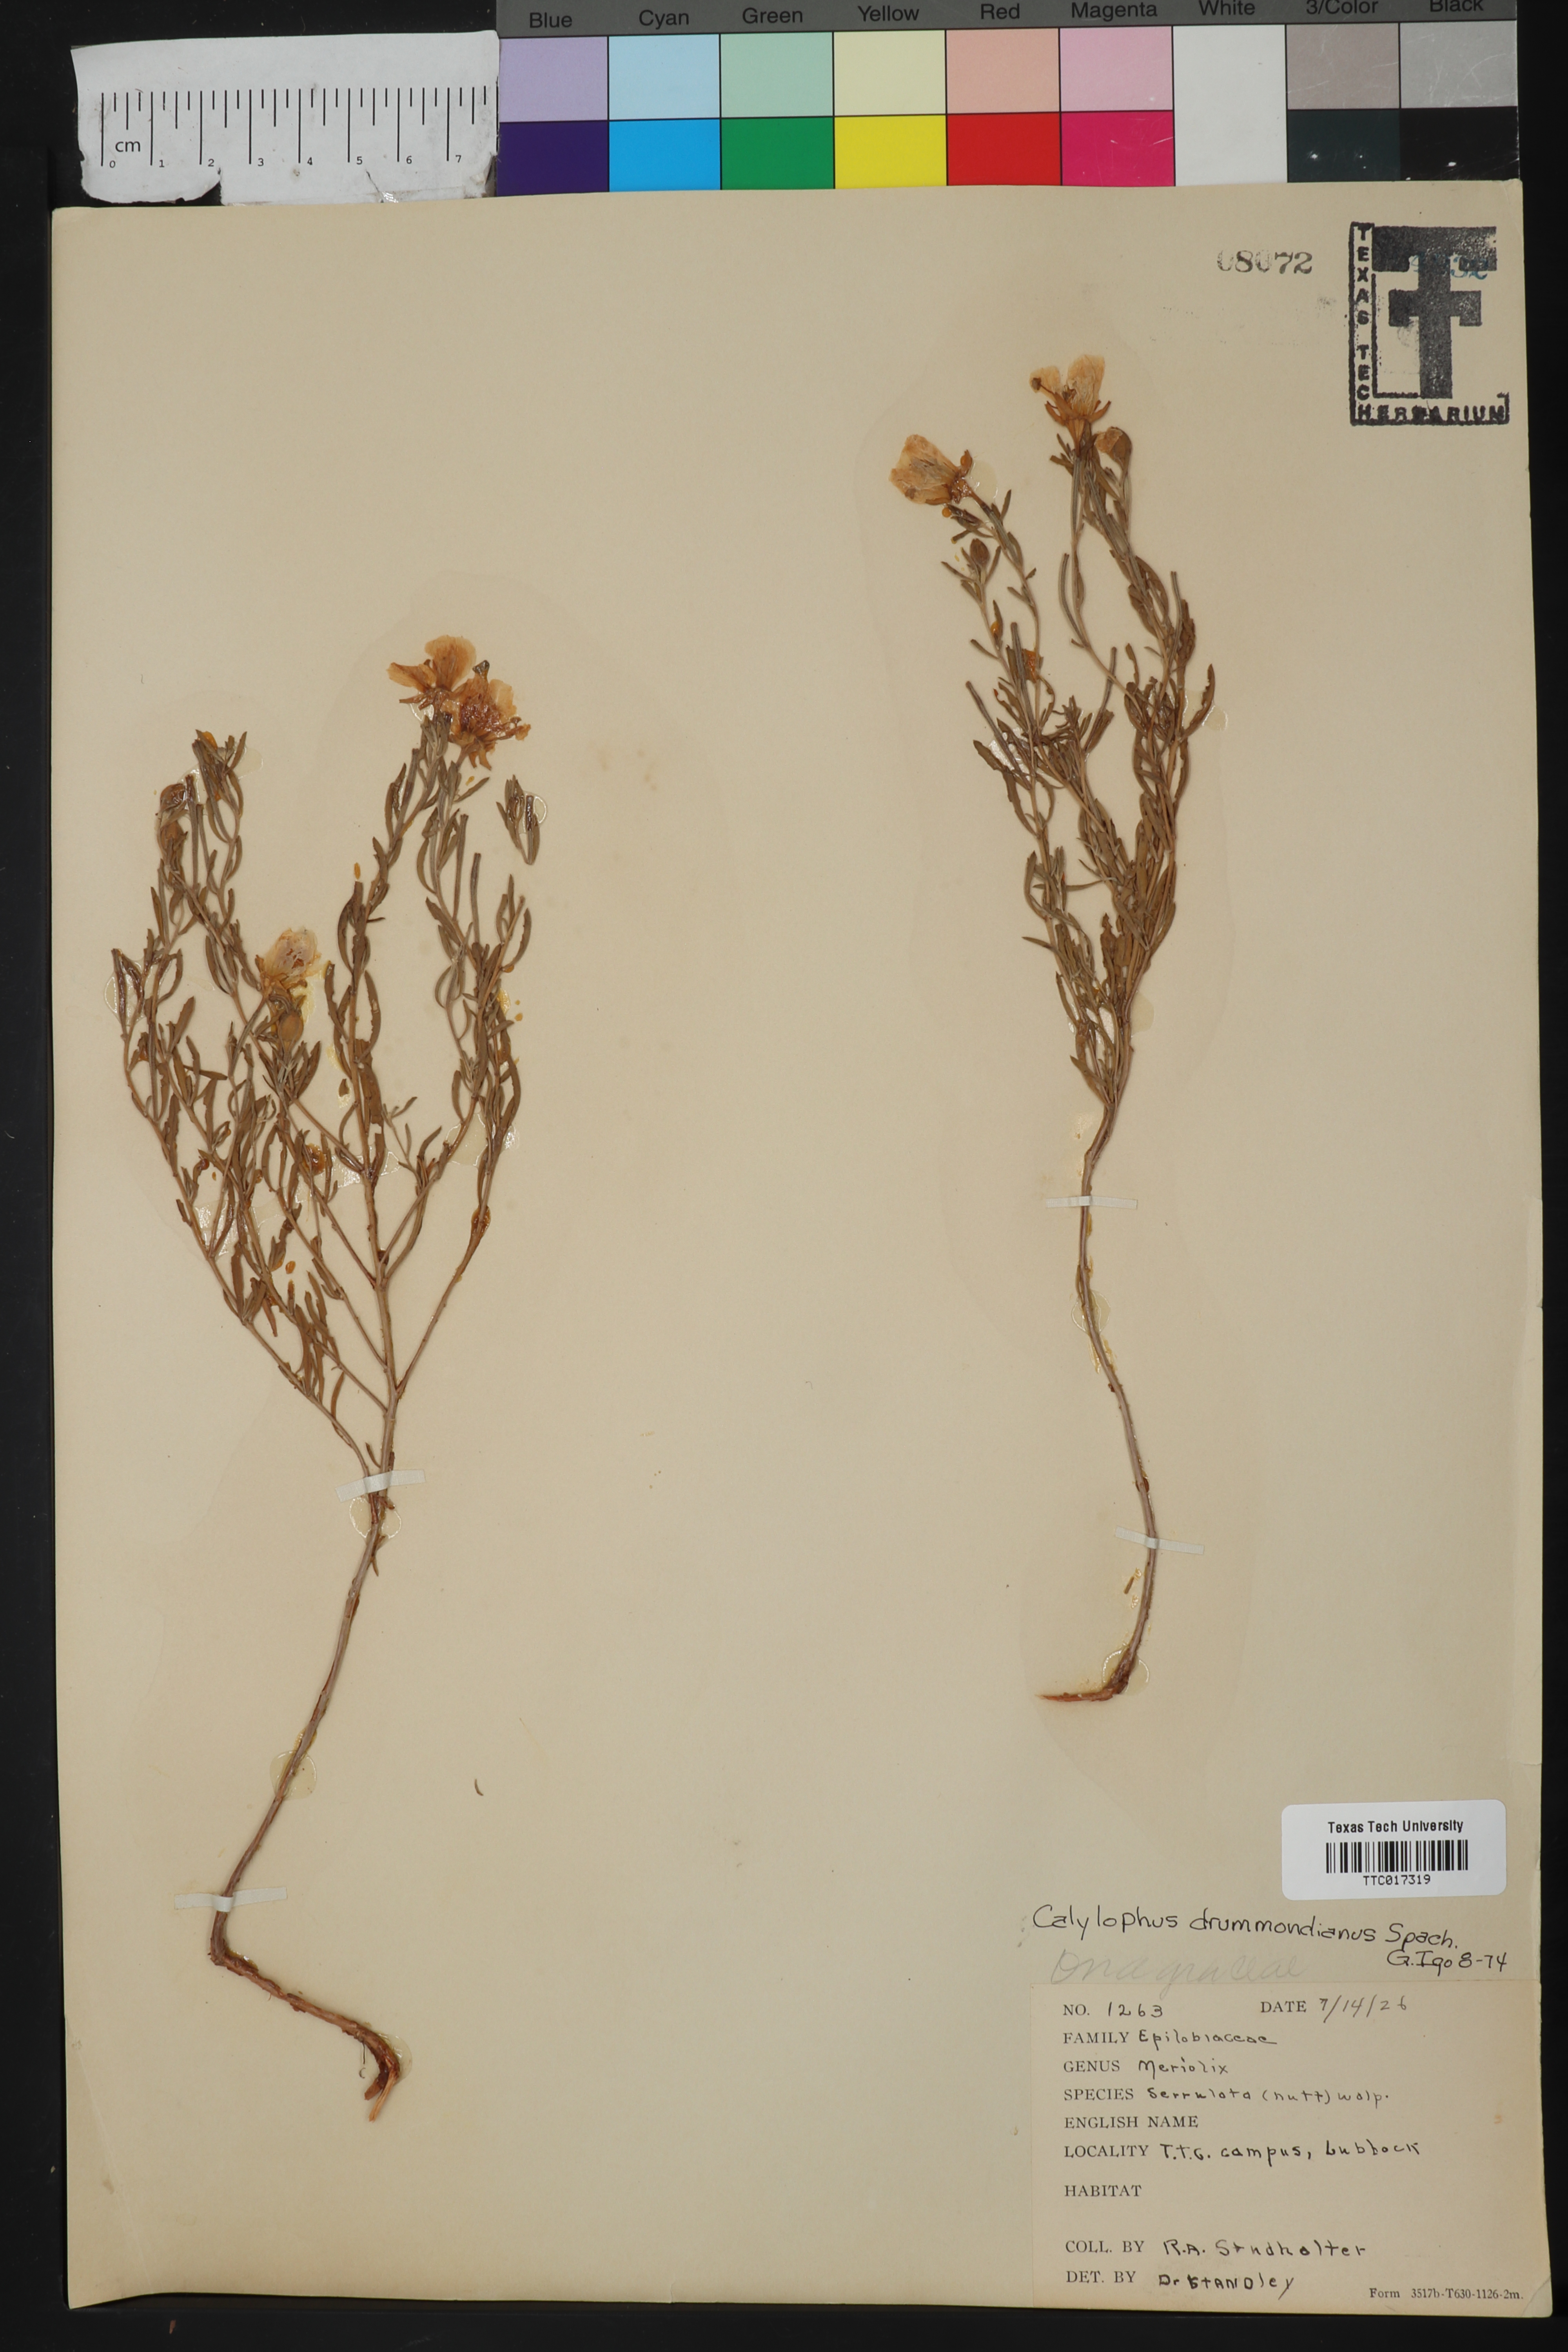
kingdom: Plantae
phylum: Tracheophyta
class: Magnoliopsida
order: Myrtales
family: Onagraceae
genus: Oenothera
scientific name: Oenothera serrulata
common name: Half-shrub calylophus
